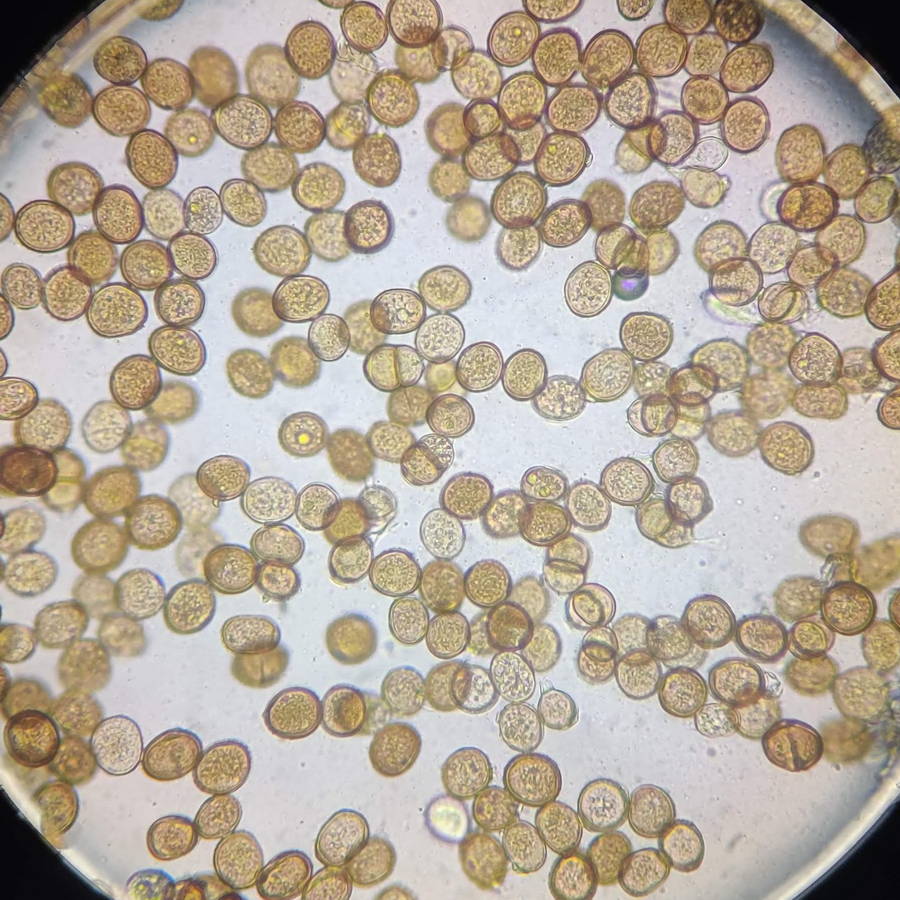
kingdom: Fungi
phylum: Basidiomycota
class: Pucciniomycetes
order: Pucciniales
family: Pucciniaceae
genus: Puccinia
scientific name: Puccinia pulverulenta
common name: dueurt-tvecellerust
